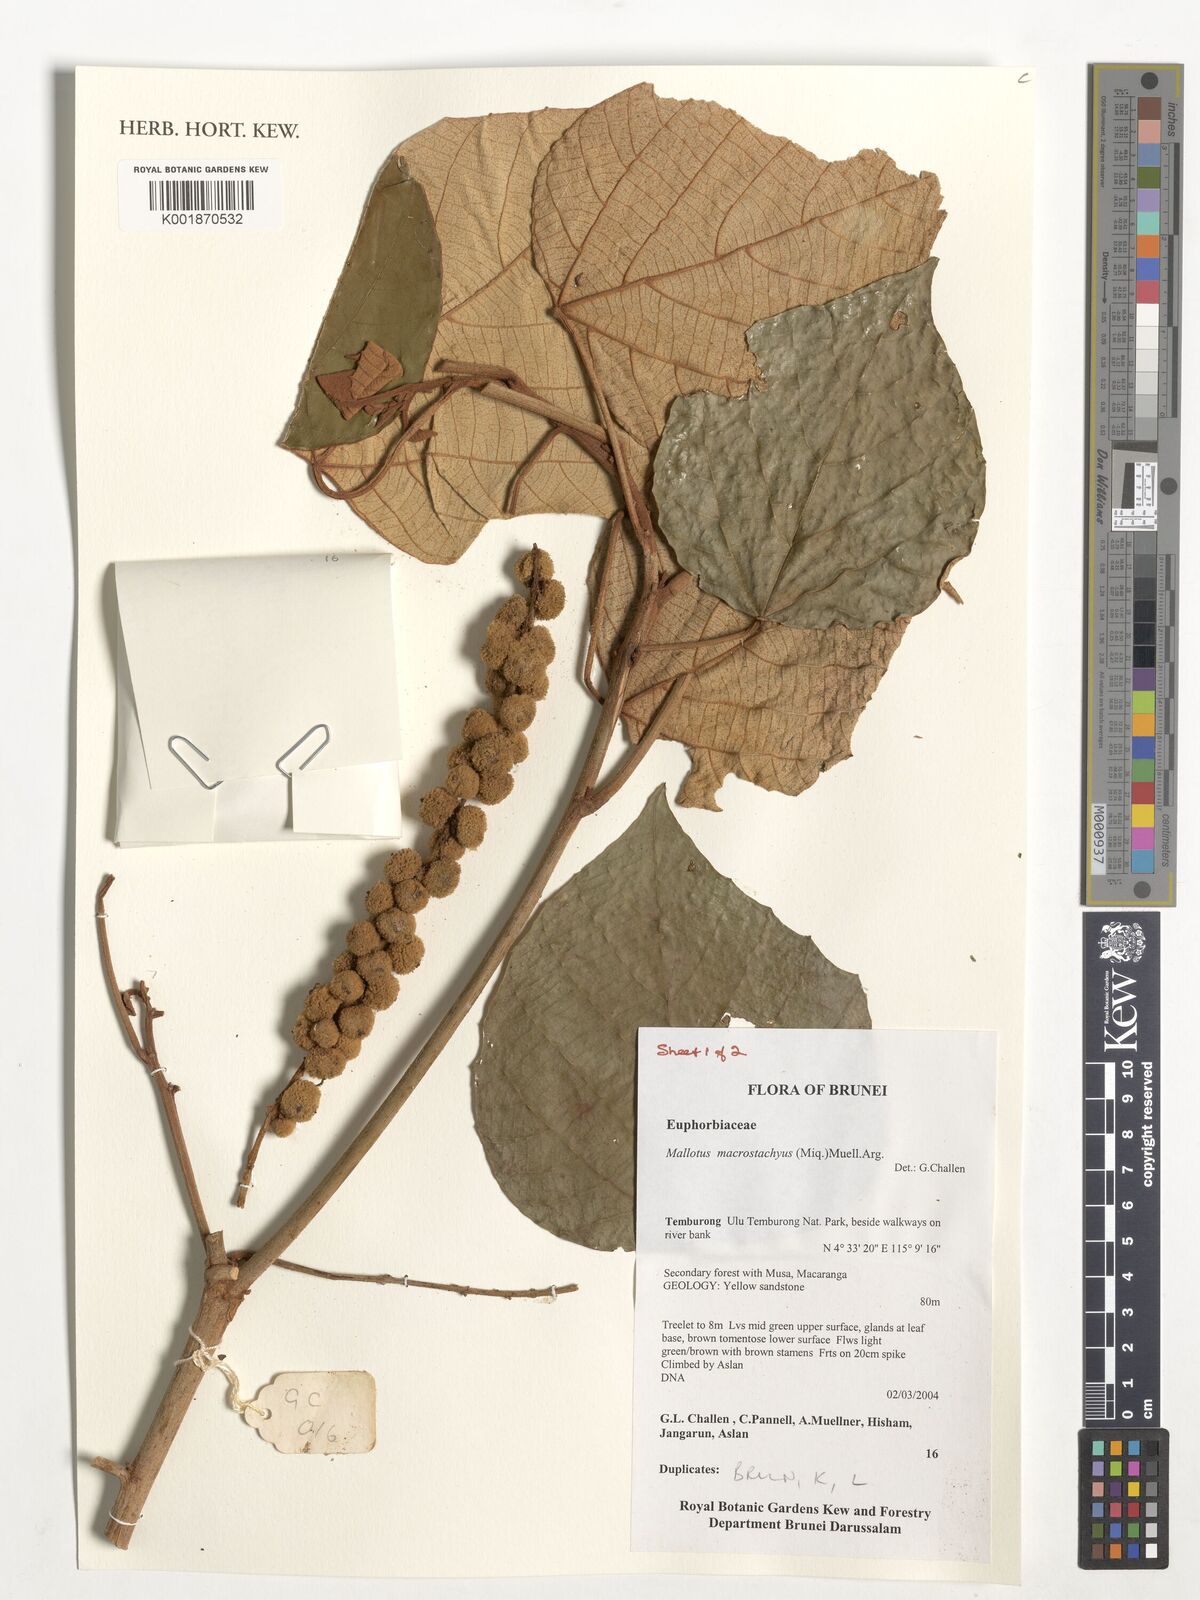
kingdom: Plantae
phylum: Tracheophyta
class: Magnoliopsida
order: Malpighiales
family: Euphorbiaceae
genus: Mallotus
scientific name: Mallotus macrostachyus
